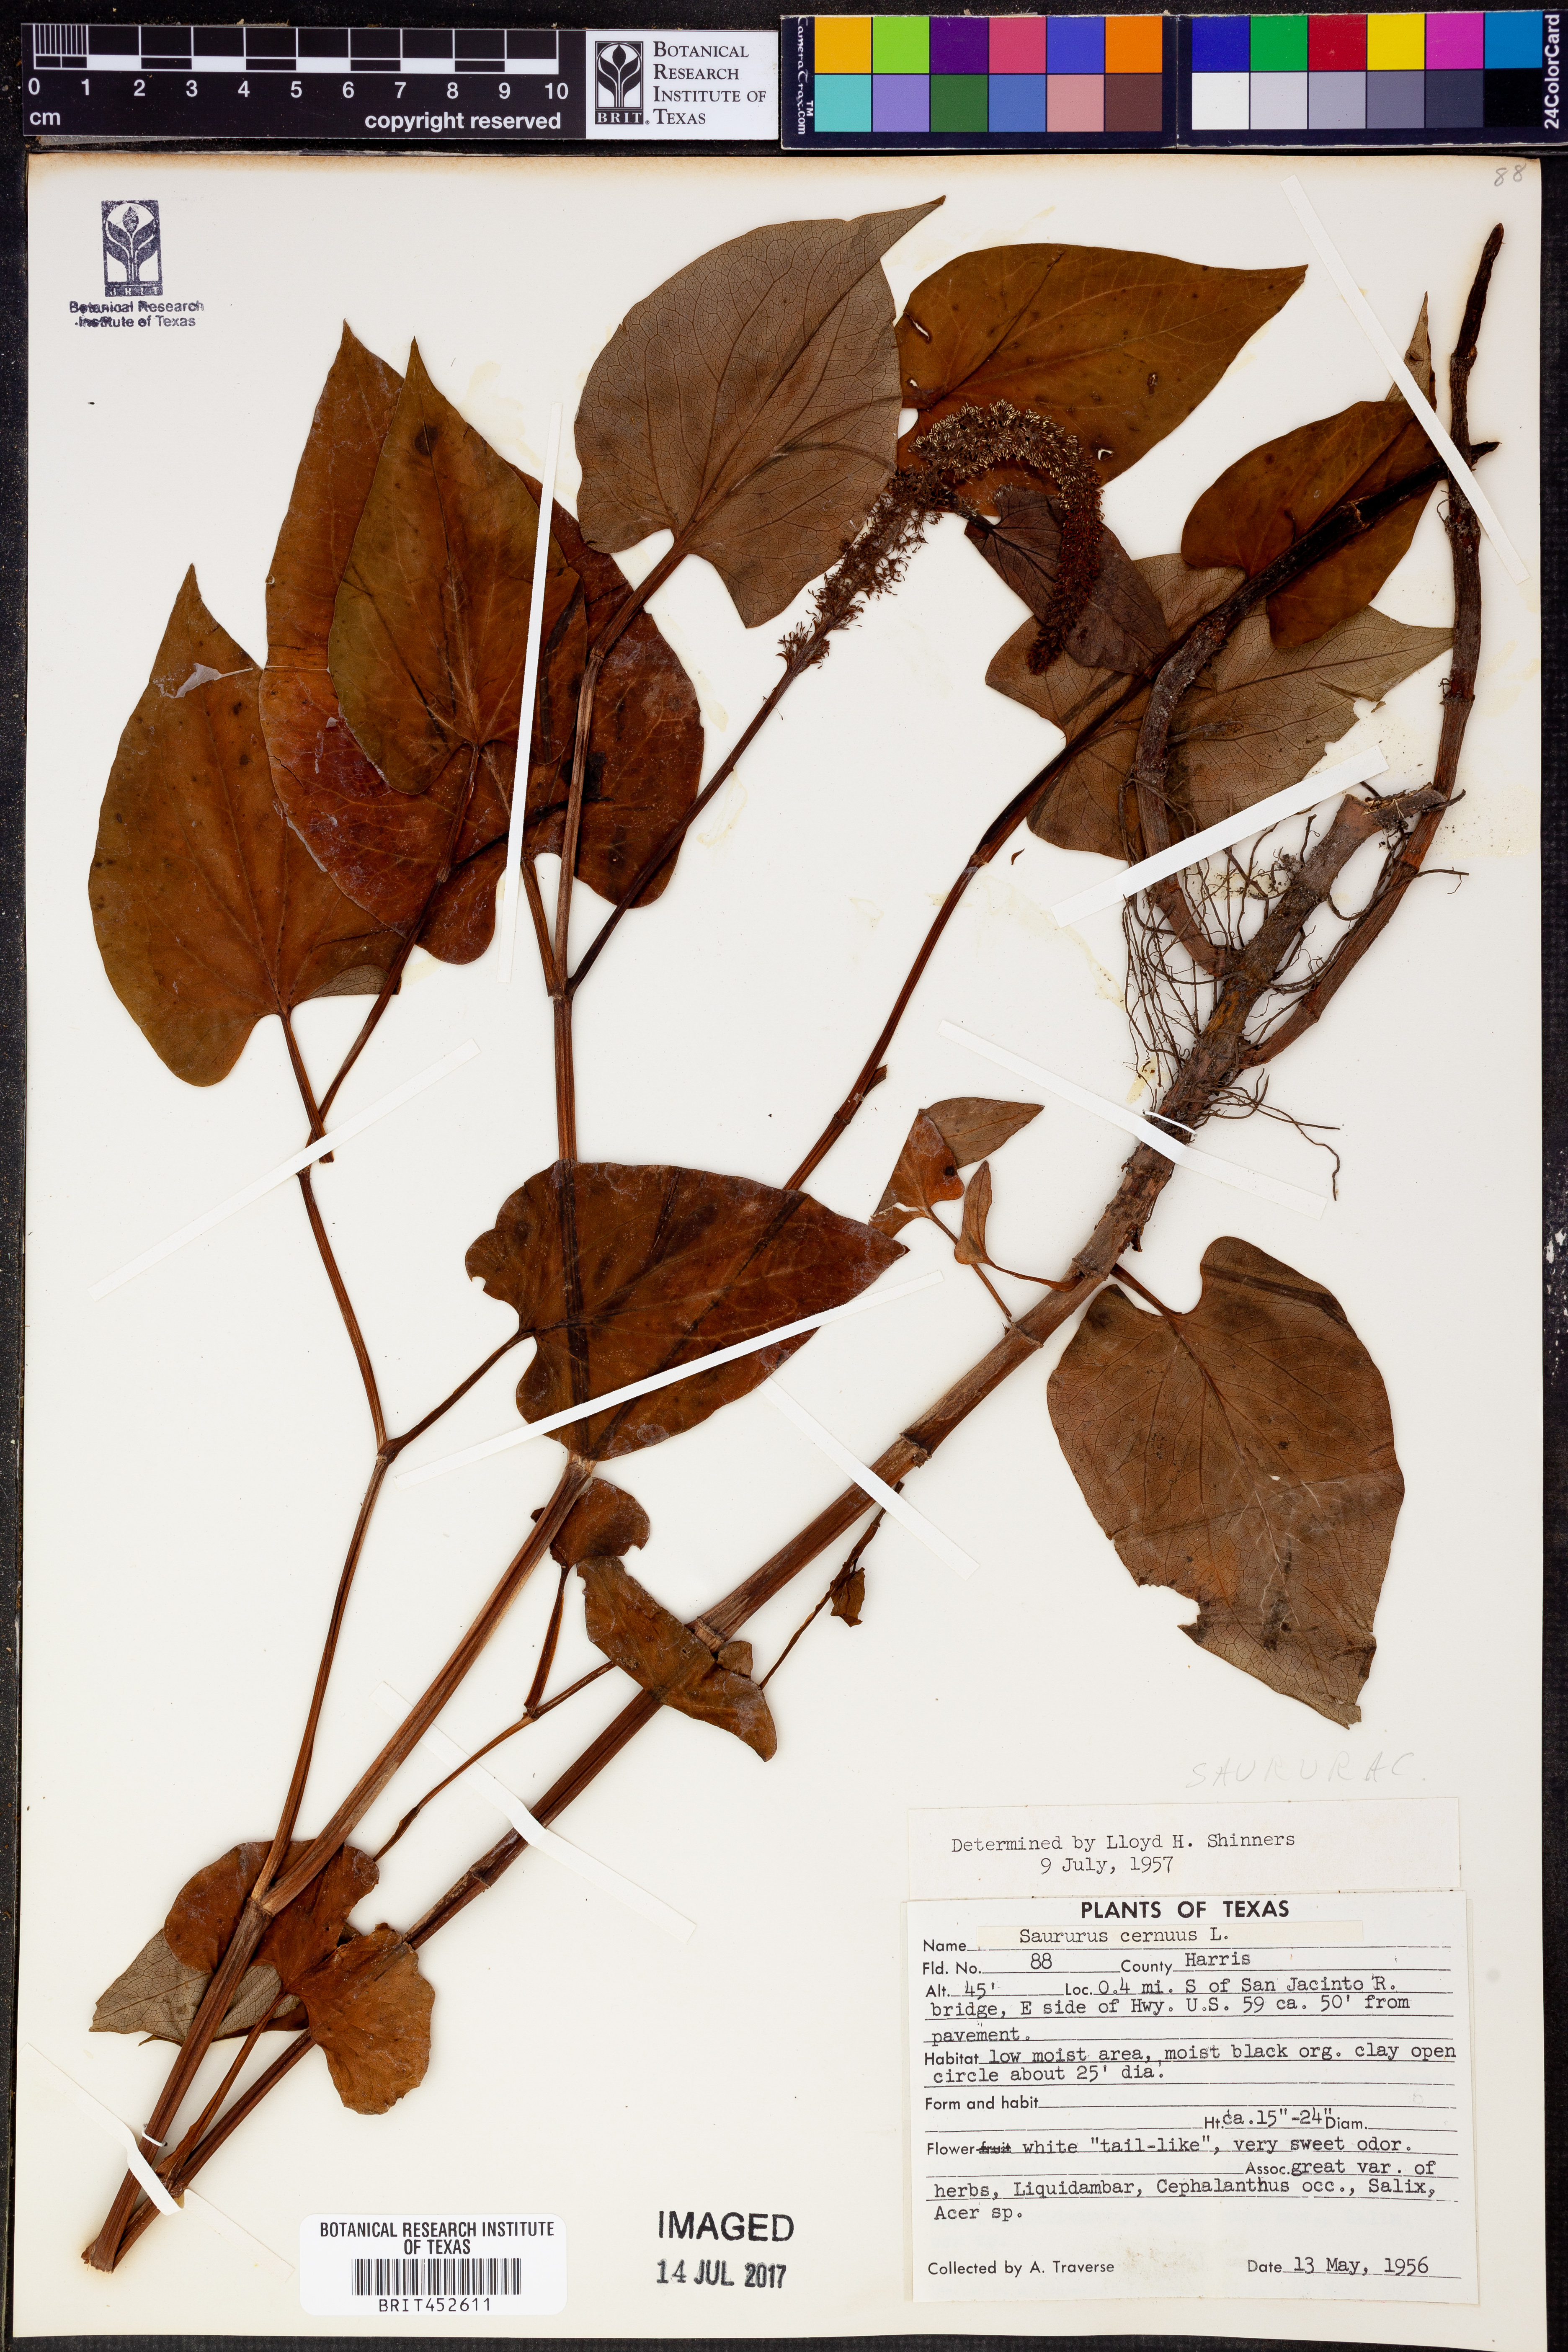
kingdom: Plantae
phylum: Tracheophyta
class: Magnoliopsida
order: Piperales
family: Saururaceae
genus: Saururus
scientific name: Saururus cernuus
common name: Lizard's-tail
